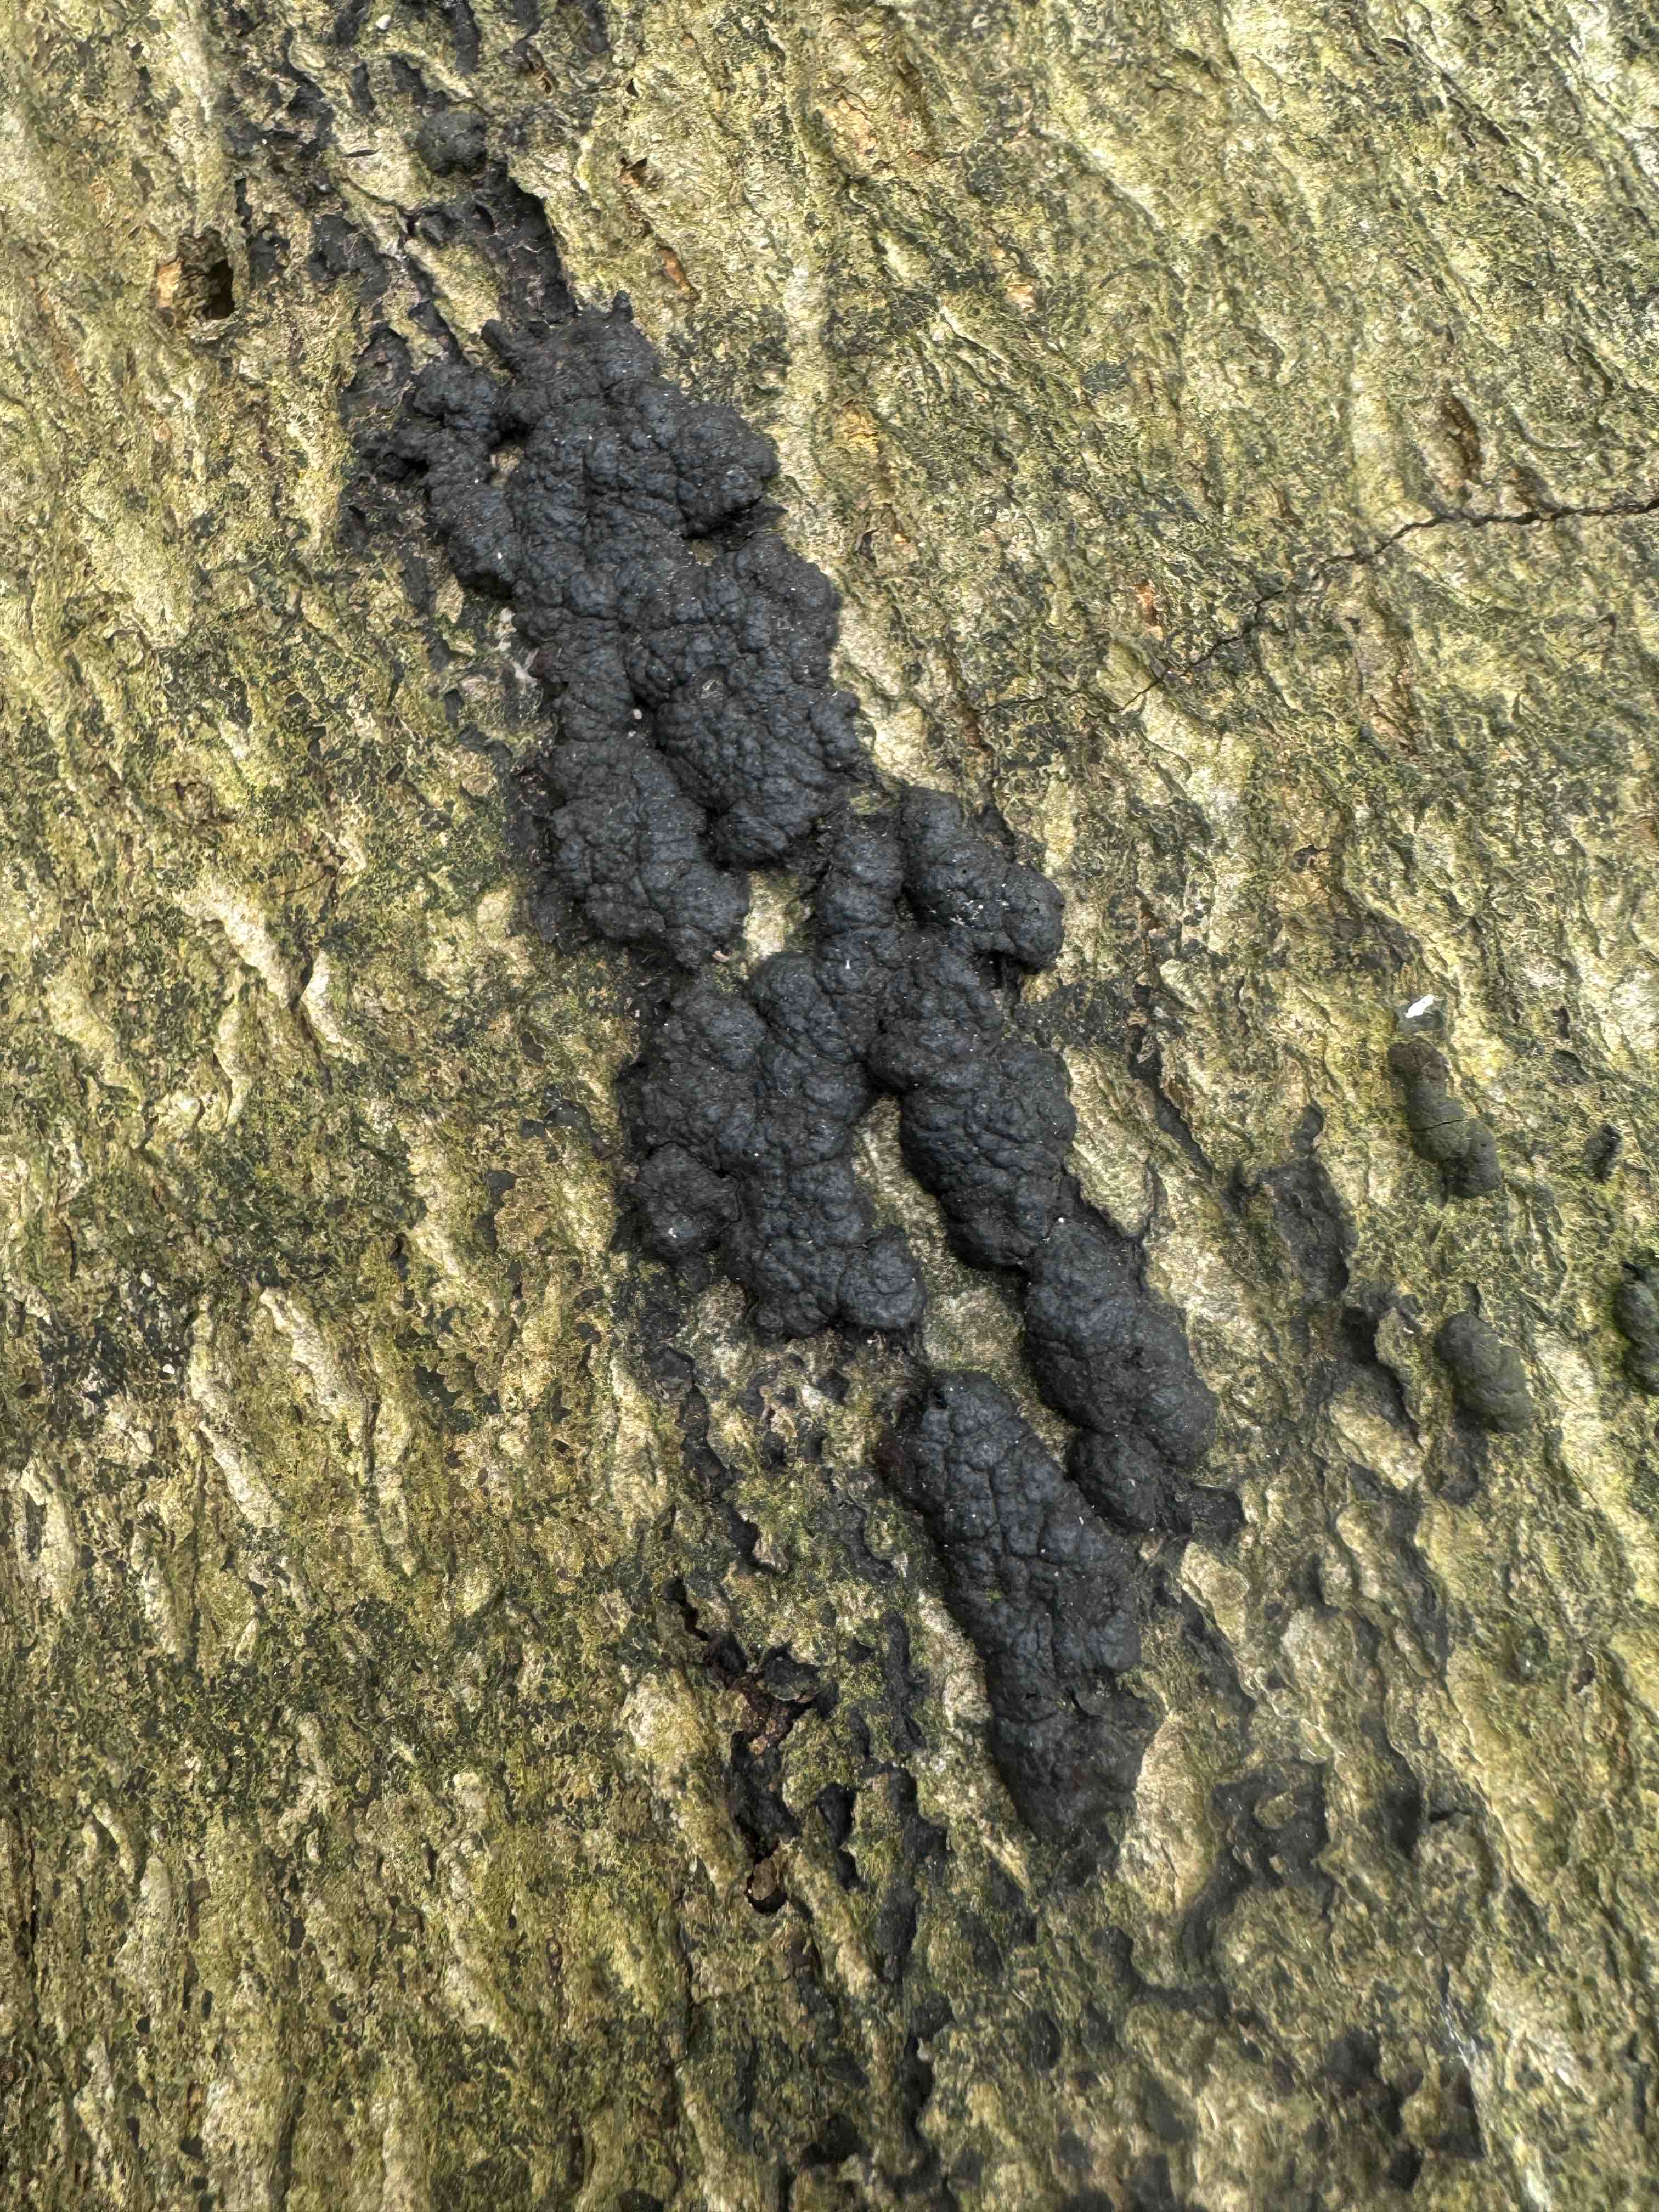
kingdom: Fungi
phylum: Ascomycota
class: Sordariomycetes
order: Xylariales
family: Hypoxylaceae
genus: Jackrogersella
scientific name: Jackrogersella cohaerens
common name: sammenflydende kulbær
